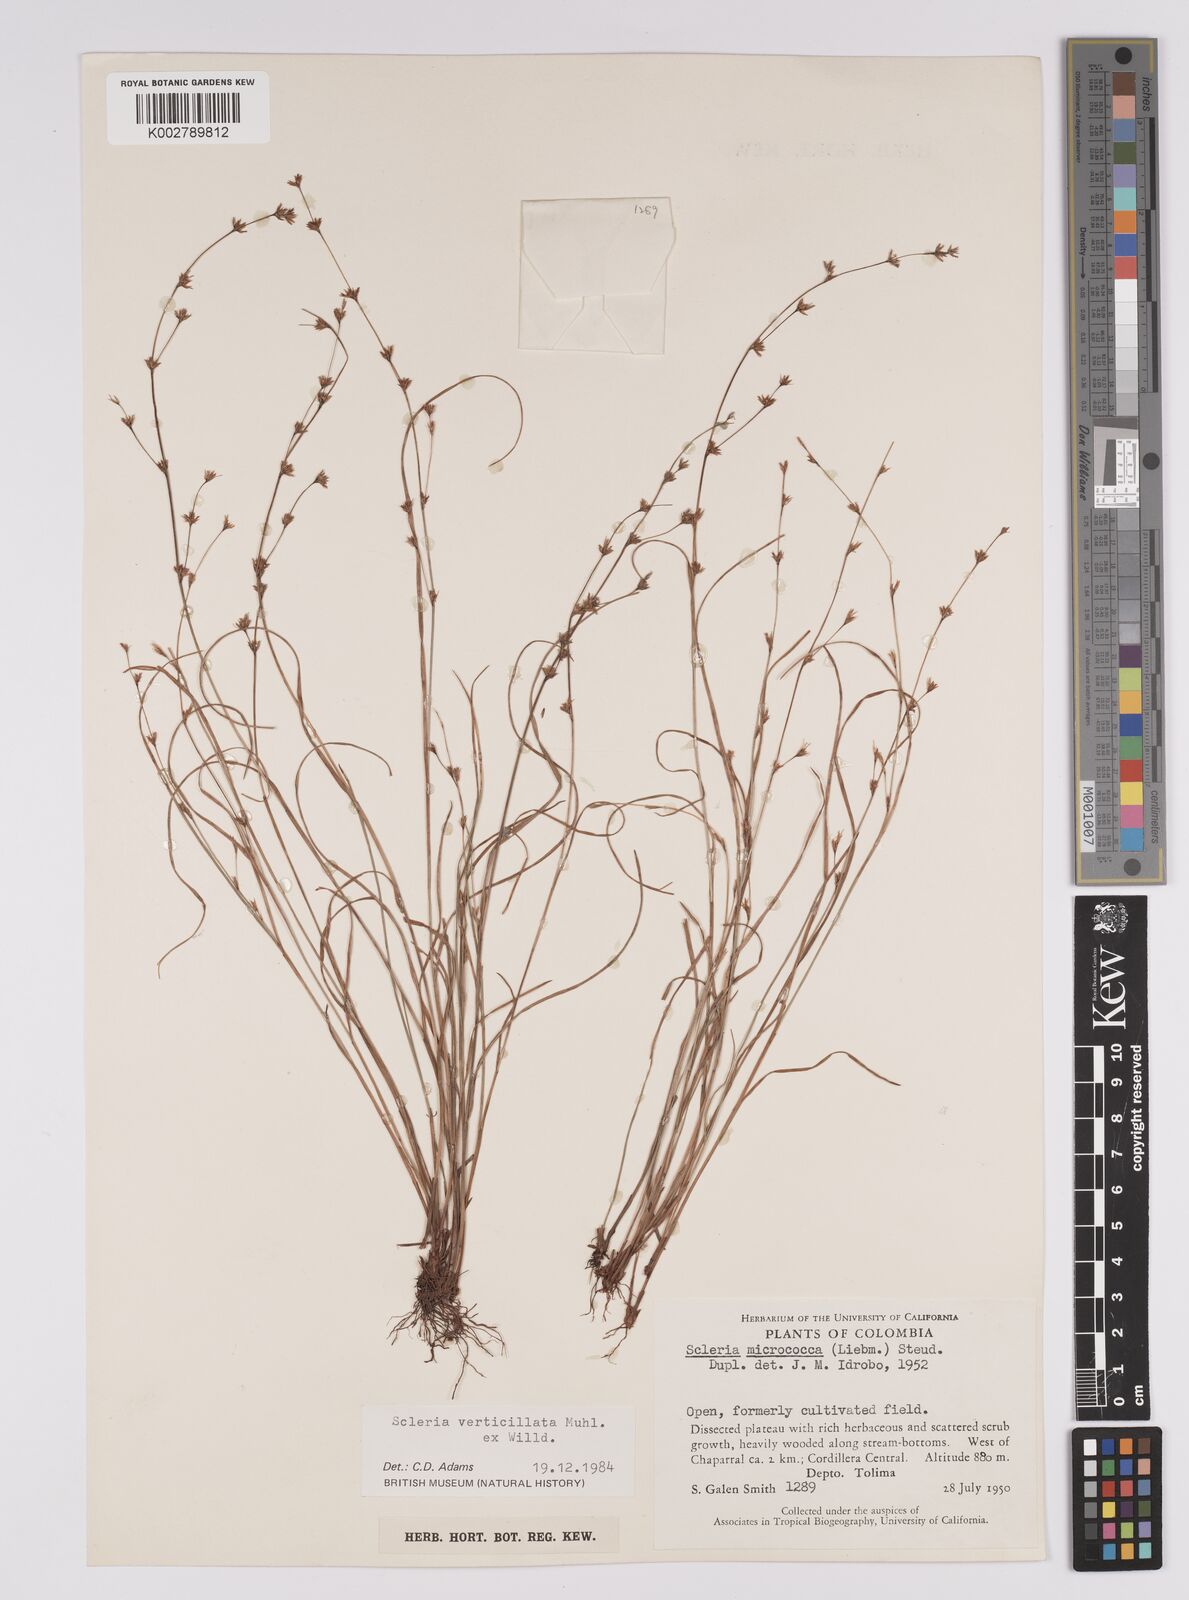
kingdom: Plantae
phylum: Tracheophyta
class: Liliopsida
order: Poales
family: Cyperaceae
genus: Scleria
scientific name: Scleria distans
